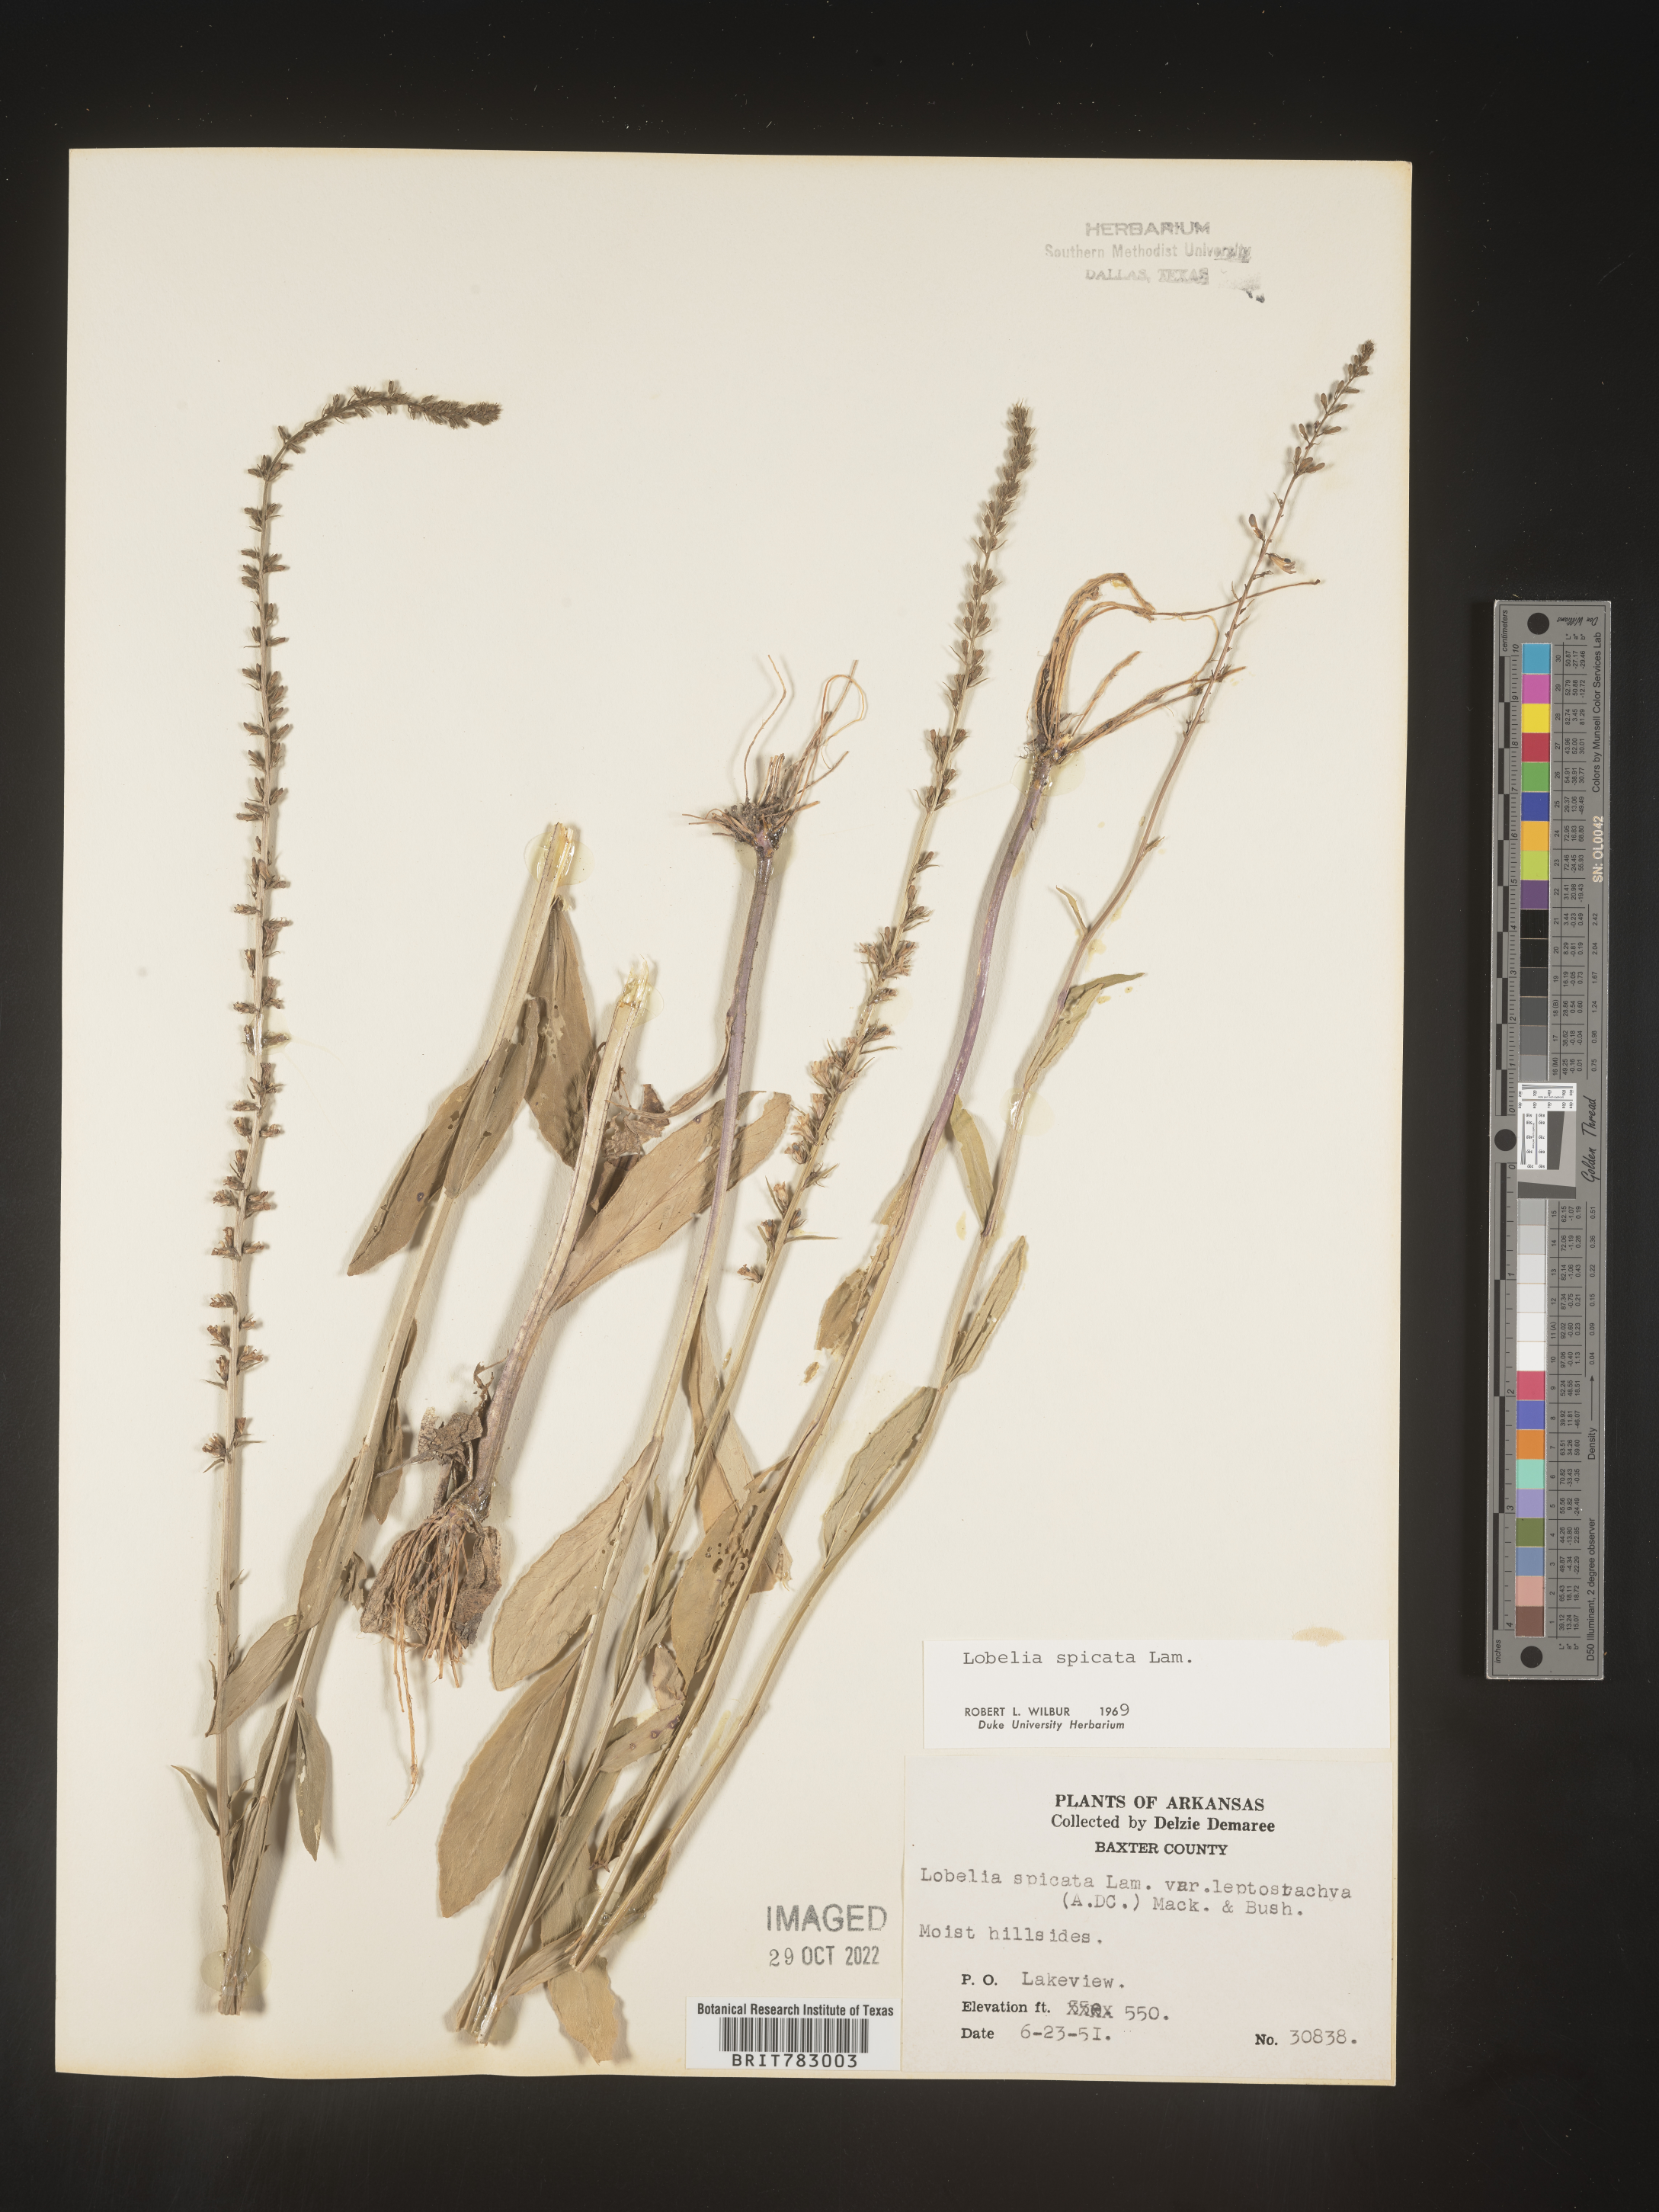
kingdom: Plantae
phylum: Tracheophyta
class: Magnoliopsida
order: Asterales
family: Campanulaceae
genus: Lobelia
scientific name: Lobelia spicata
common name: Pale-spike lobelia
